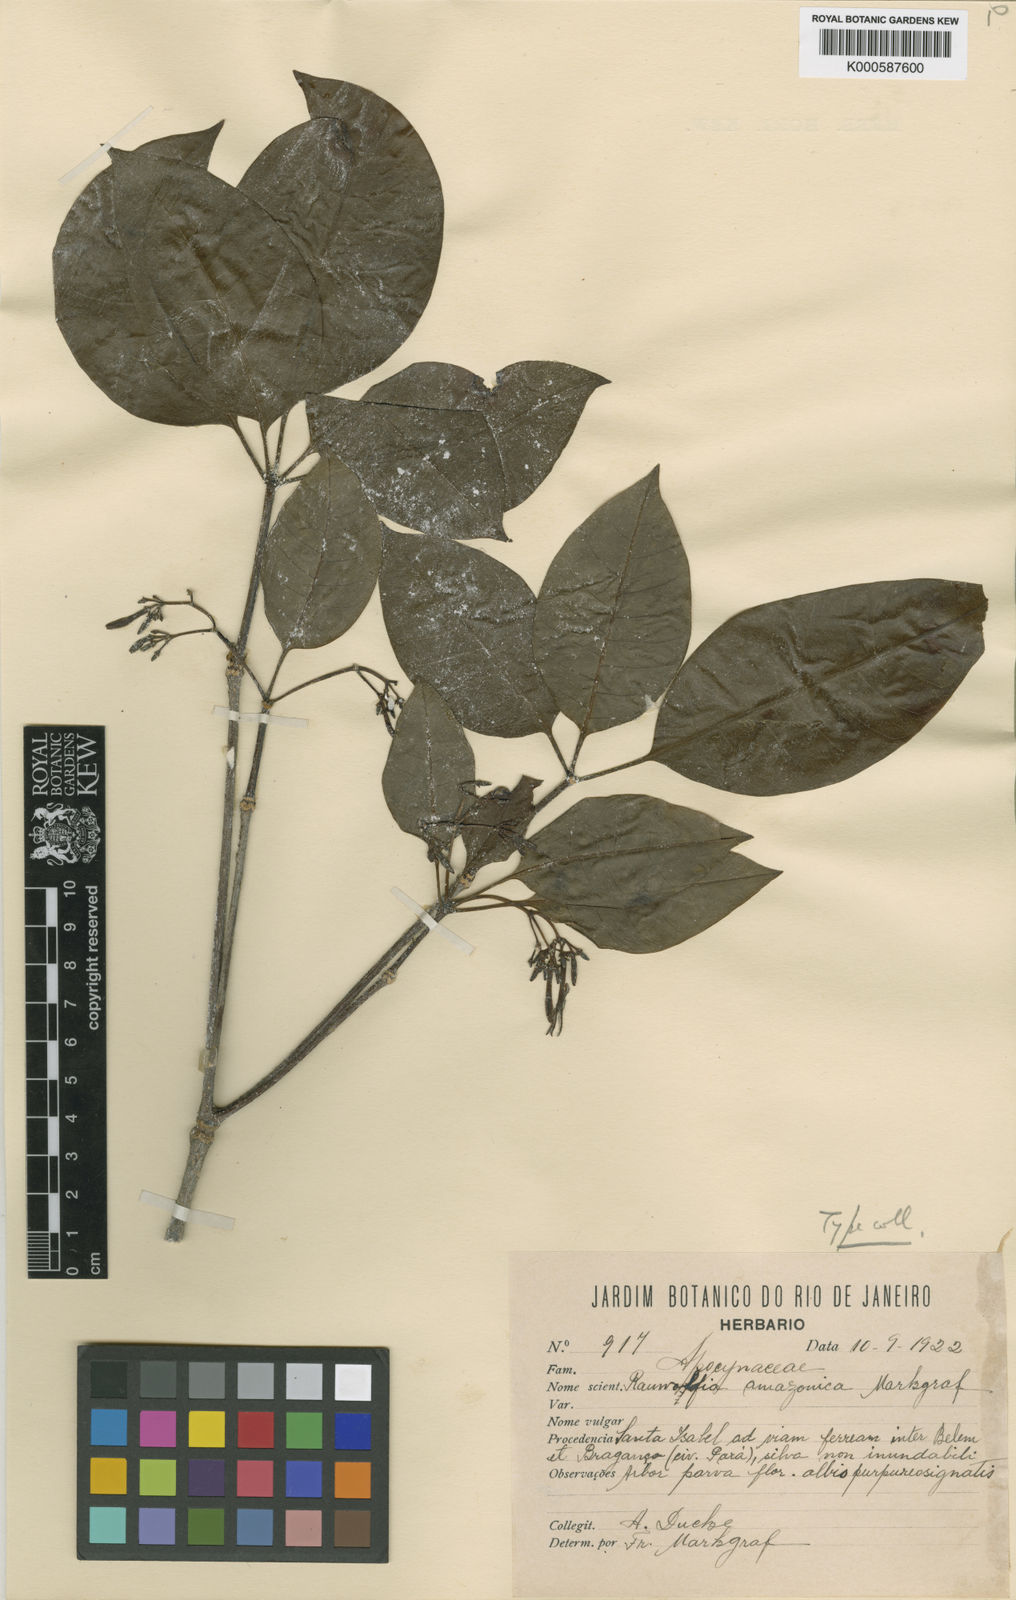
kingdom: Plantae
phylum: Tracheophyta
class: Magnoliopsida
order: Gentianales
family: Apocynaceae
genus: Rauvolfia
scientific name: Rauvolfia macrantha
